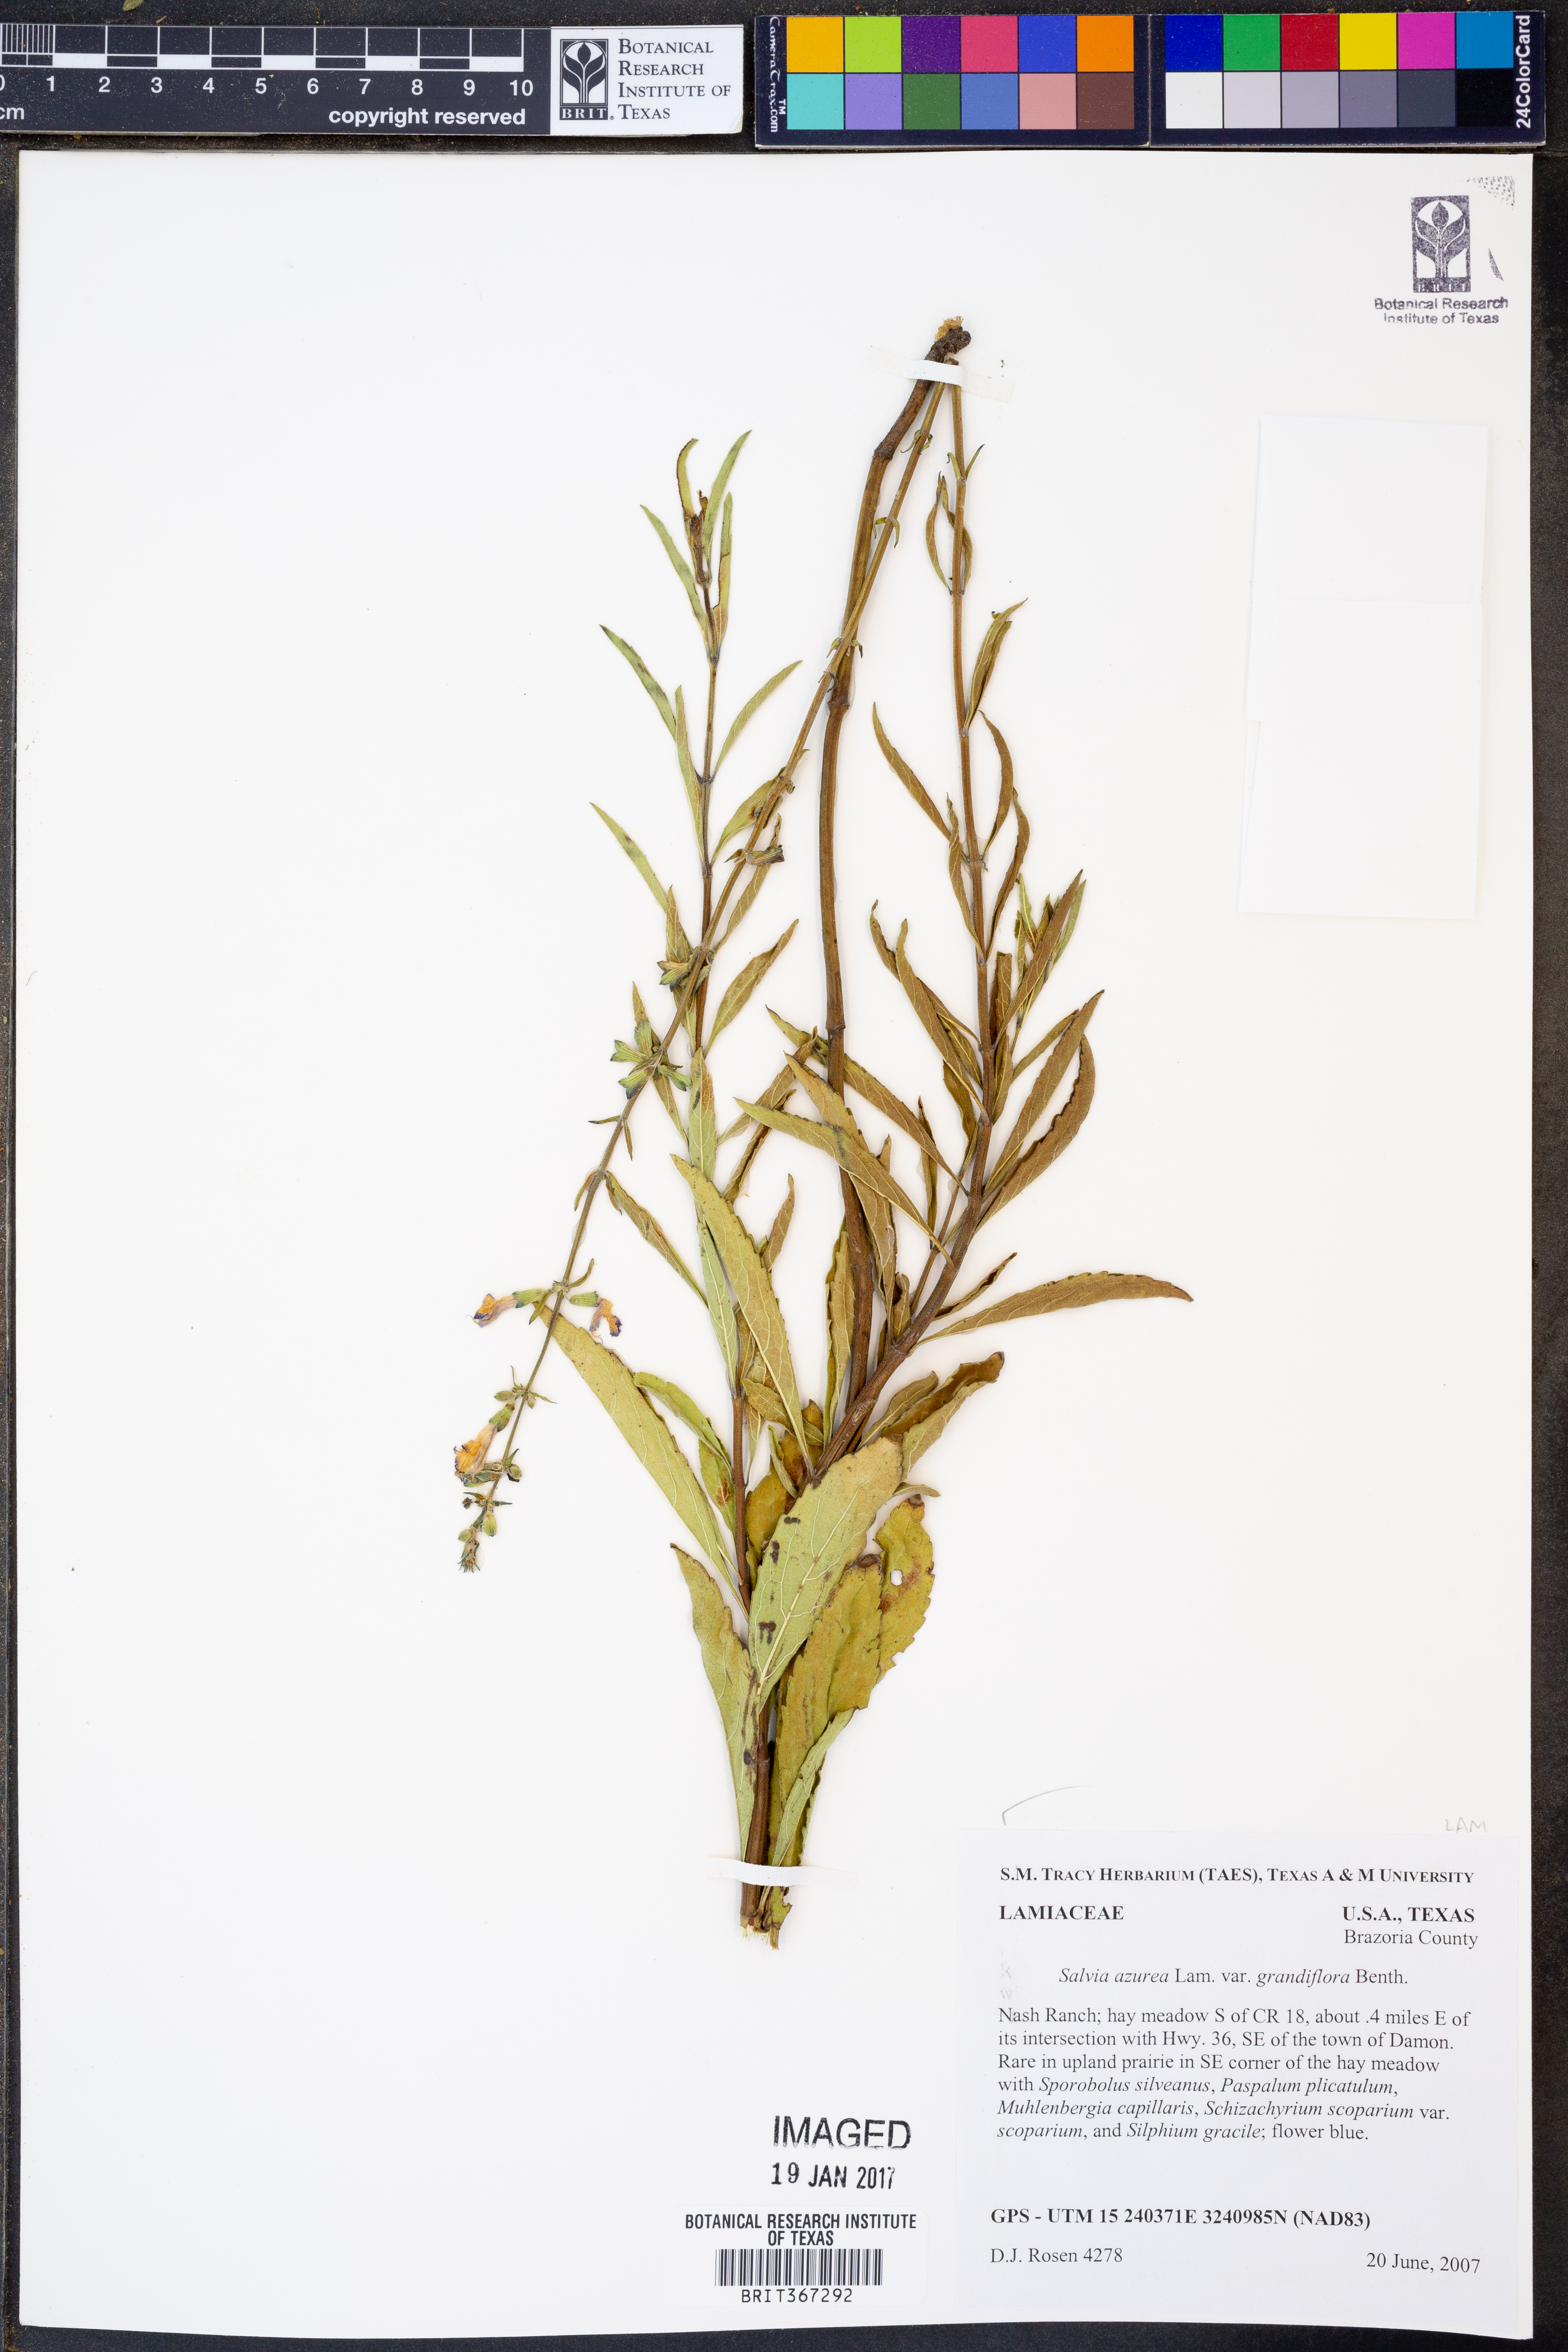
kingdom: Plantae
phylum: Tracheophyta
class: Magnoliopsida
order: Lamiales
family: Lamiaceae
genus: Salvia
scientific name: Salvia azurea
